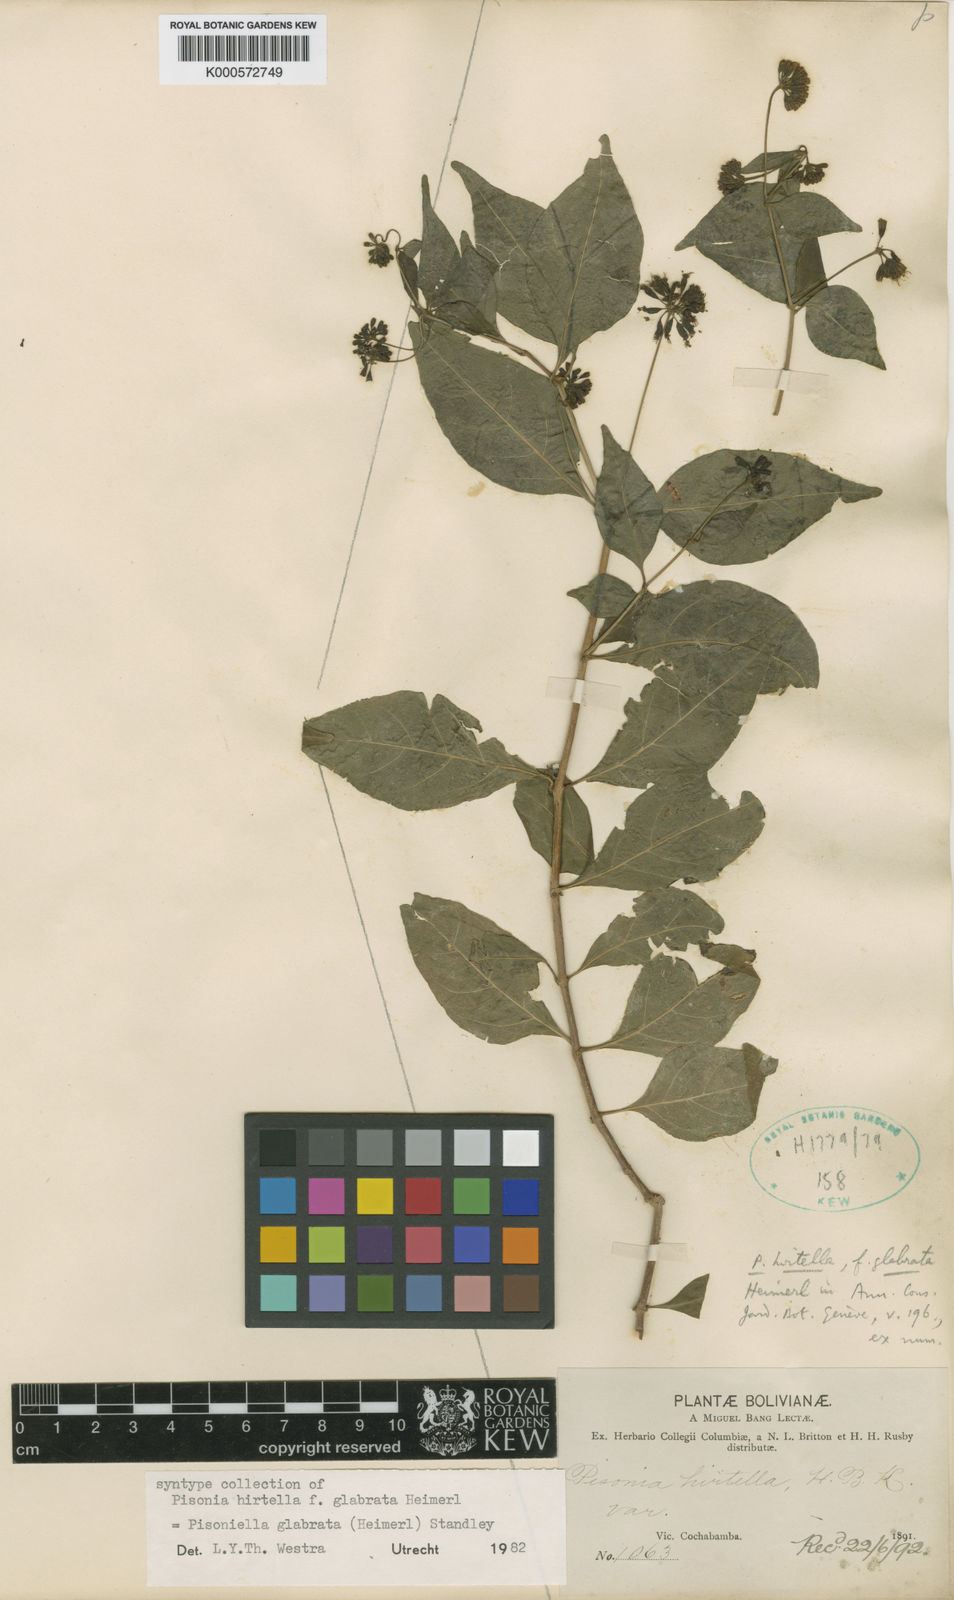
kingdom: Plantae
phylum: Tracheophyta
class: Magnoliopsida
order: Caryophyllales
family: Nyctaginaceae
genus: Pisoniella
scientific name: Pisoniella arborescens
